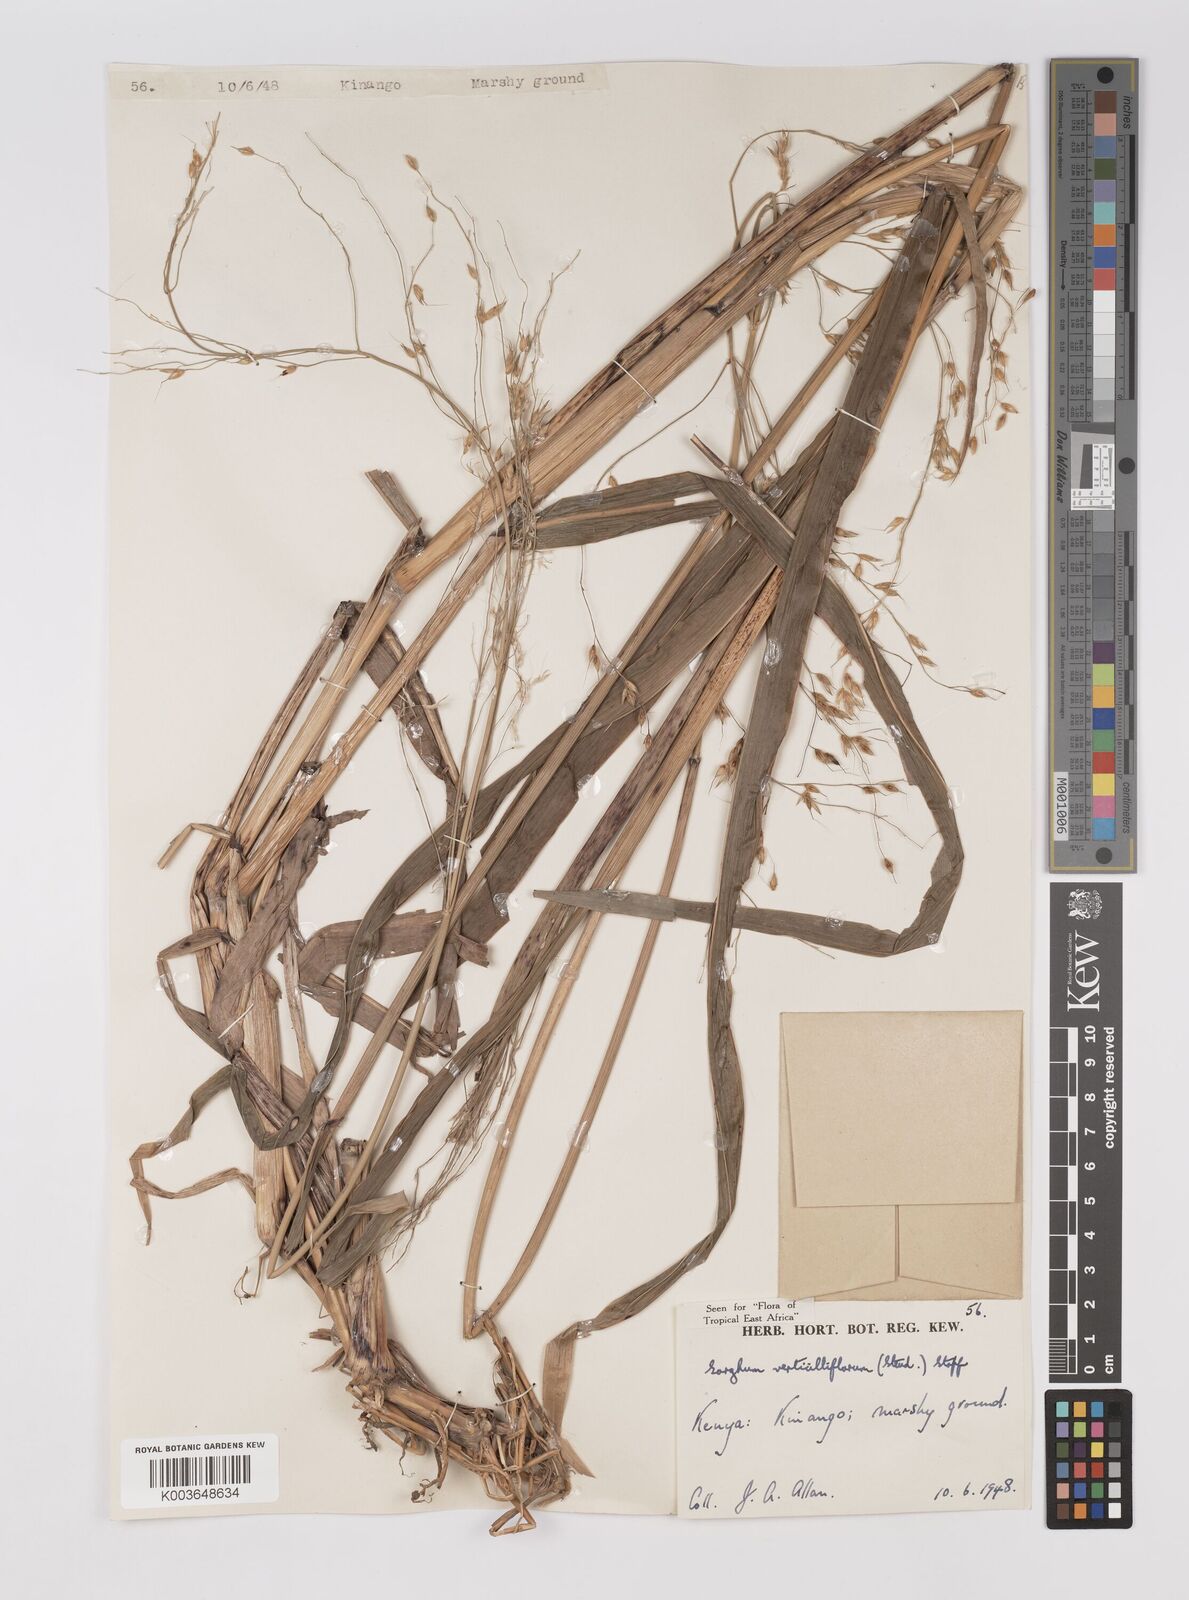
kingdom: Plantae
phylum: Tracheophyta
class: Liliopsida
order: Poales
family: Poaceae
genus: Sorghum
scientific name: Sorghum arundinaceum
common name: Sorghum
